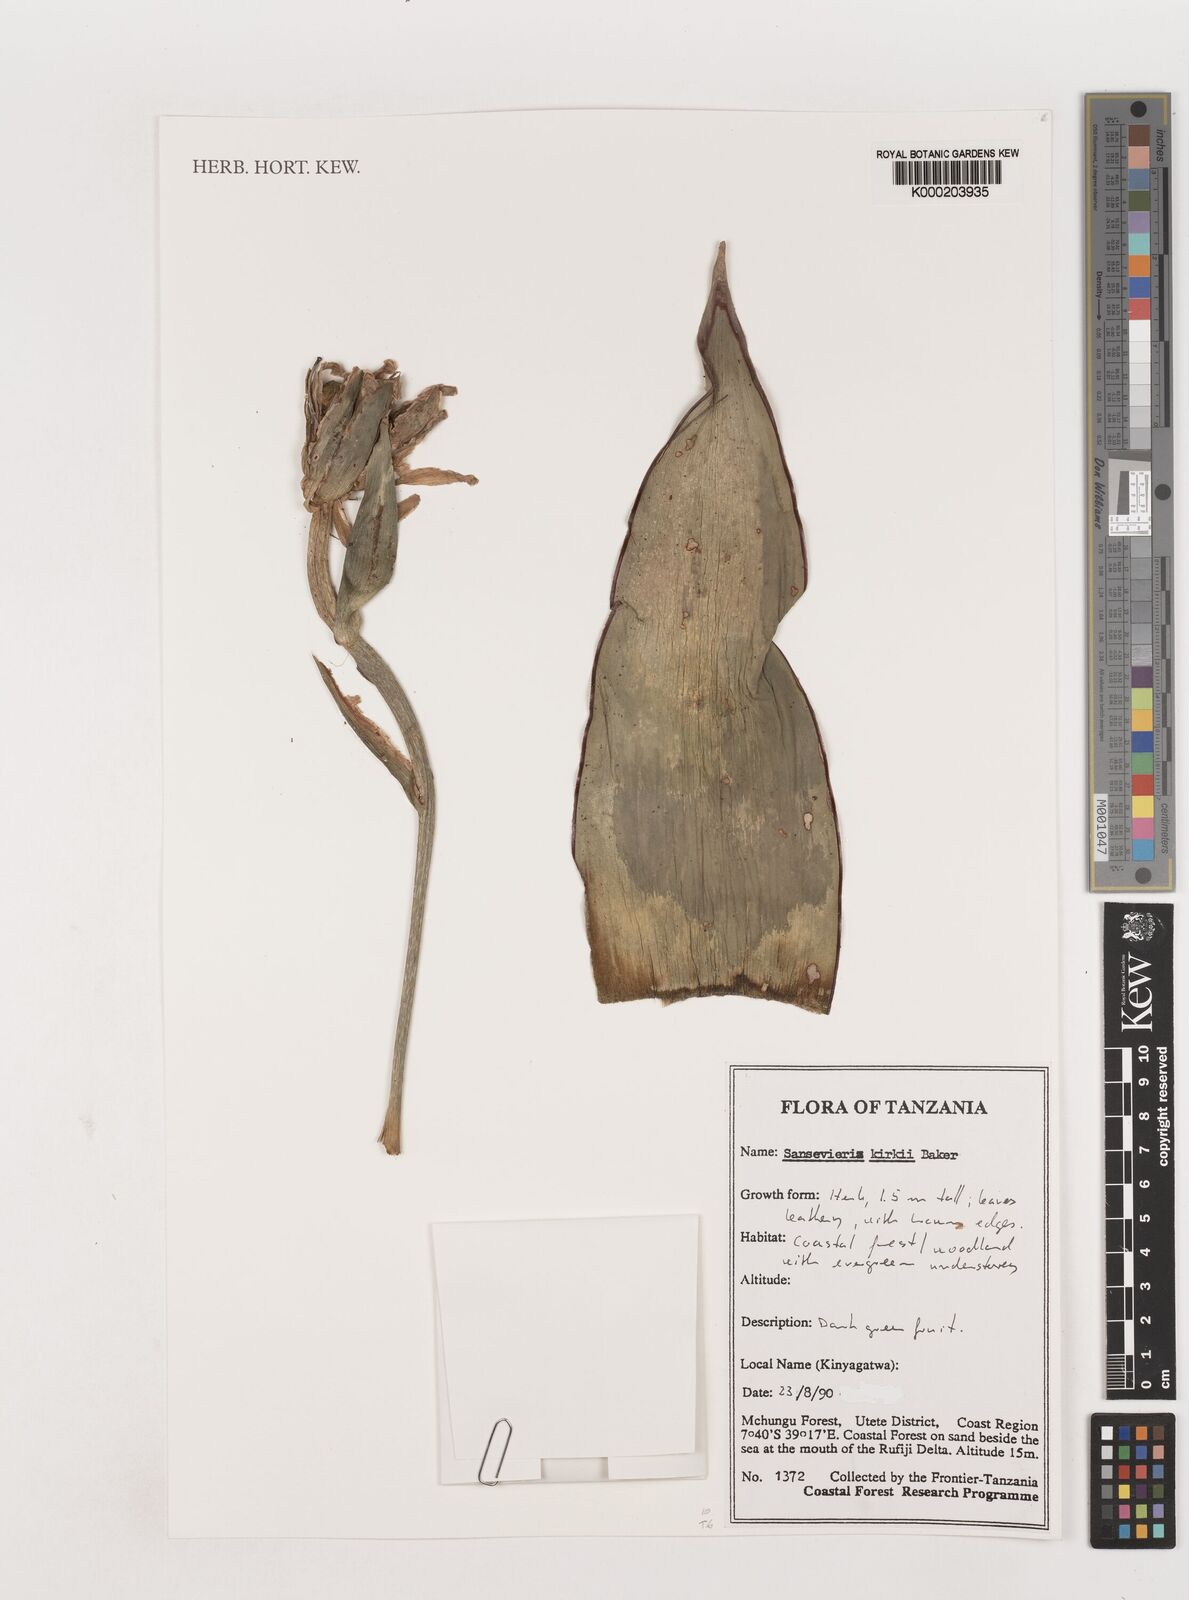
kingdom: Plantae
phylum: Tracheophyta
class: Liliopsida
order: Asparagales
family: Asparagaceae
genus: Dracaena
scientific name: Dracaena pethera
